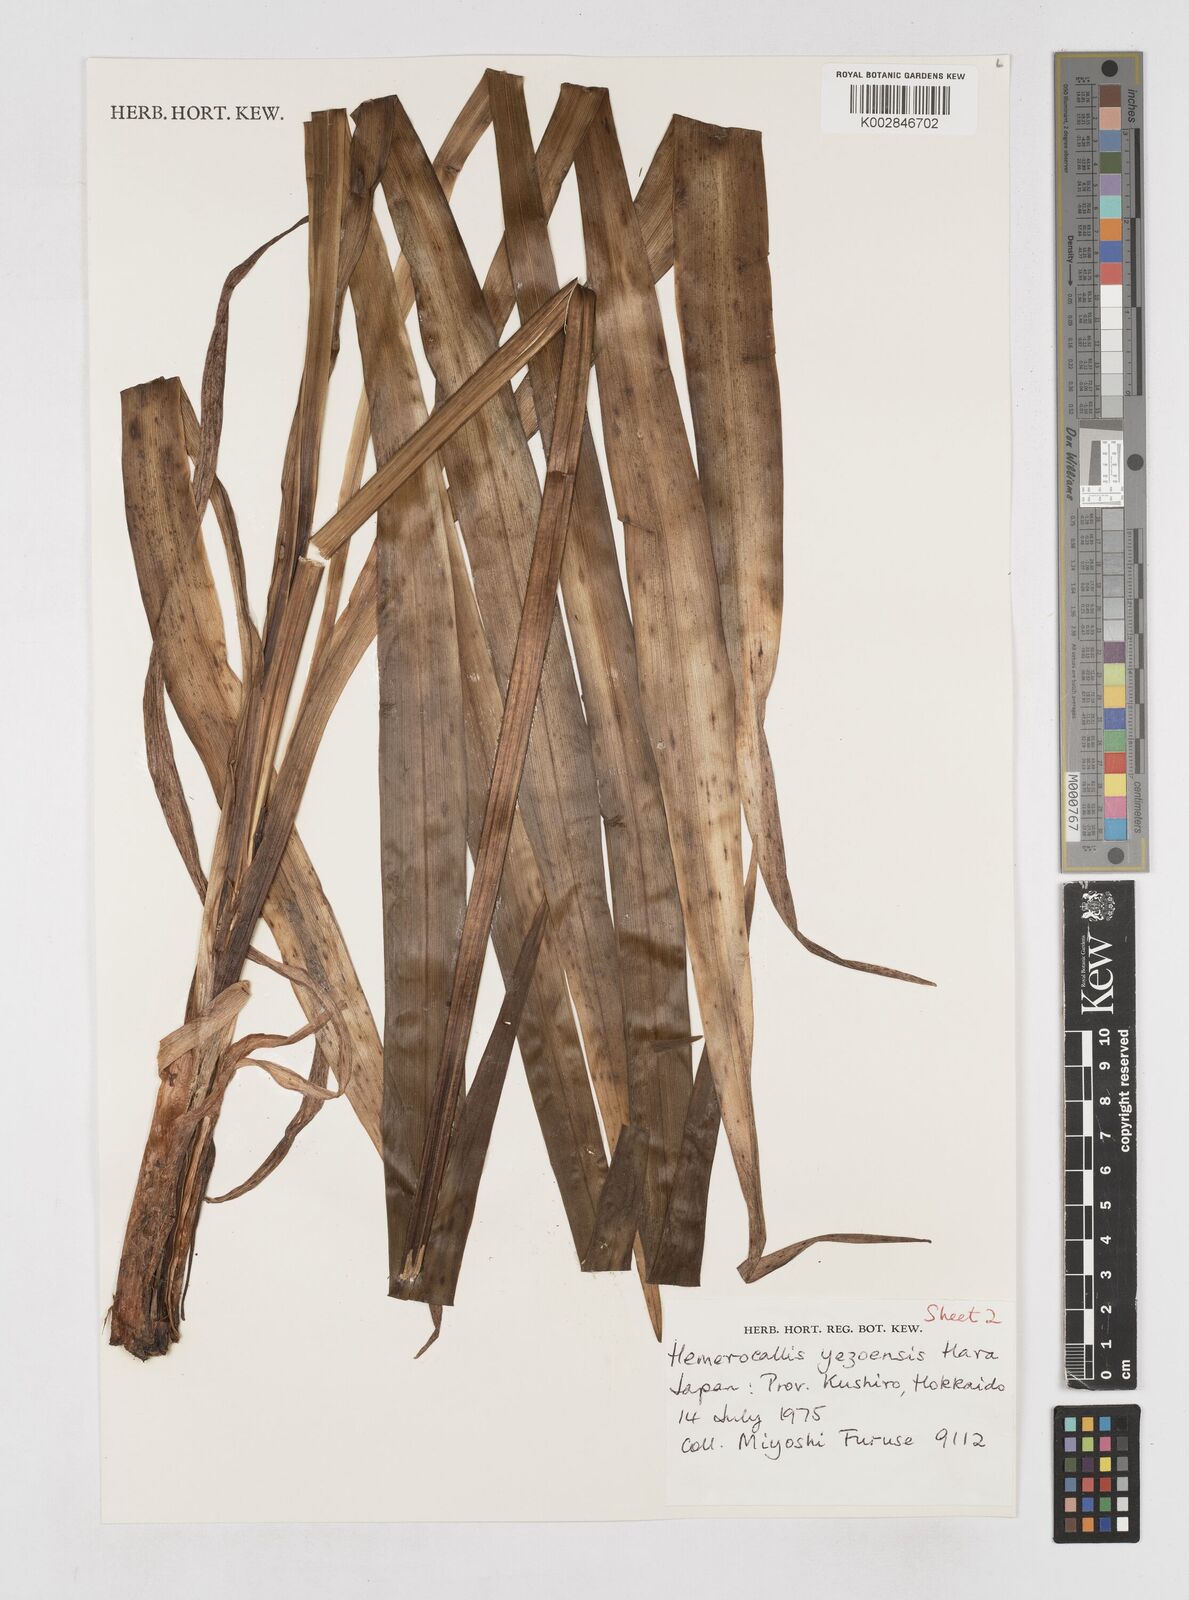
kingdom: Plantae
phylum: Tracheophyta
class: Liliopsida
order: Asparagales
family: Asphodelaceae
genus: Hemerocallis
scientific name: Hemerocallis yezoensis
